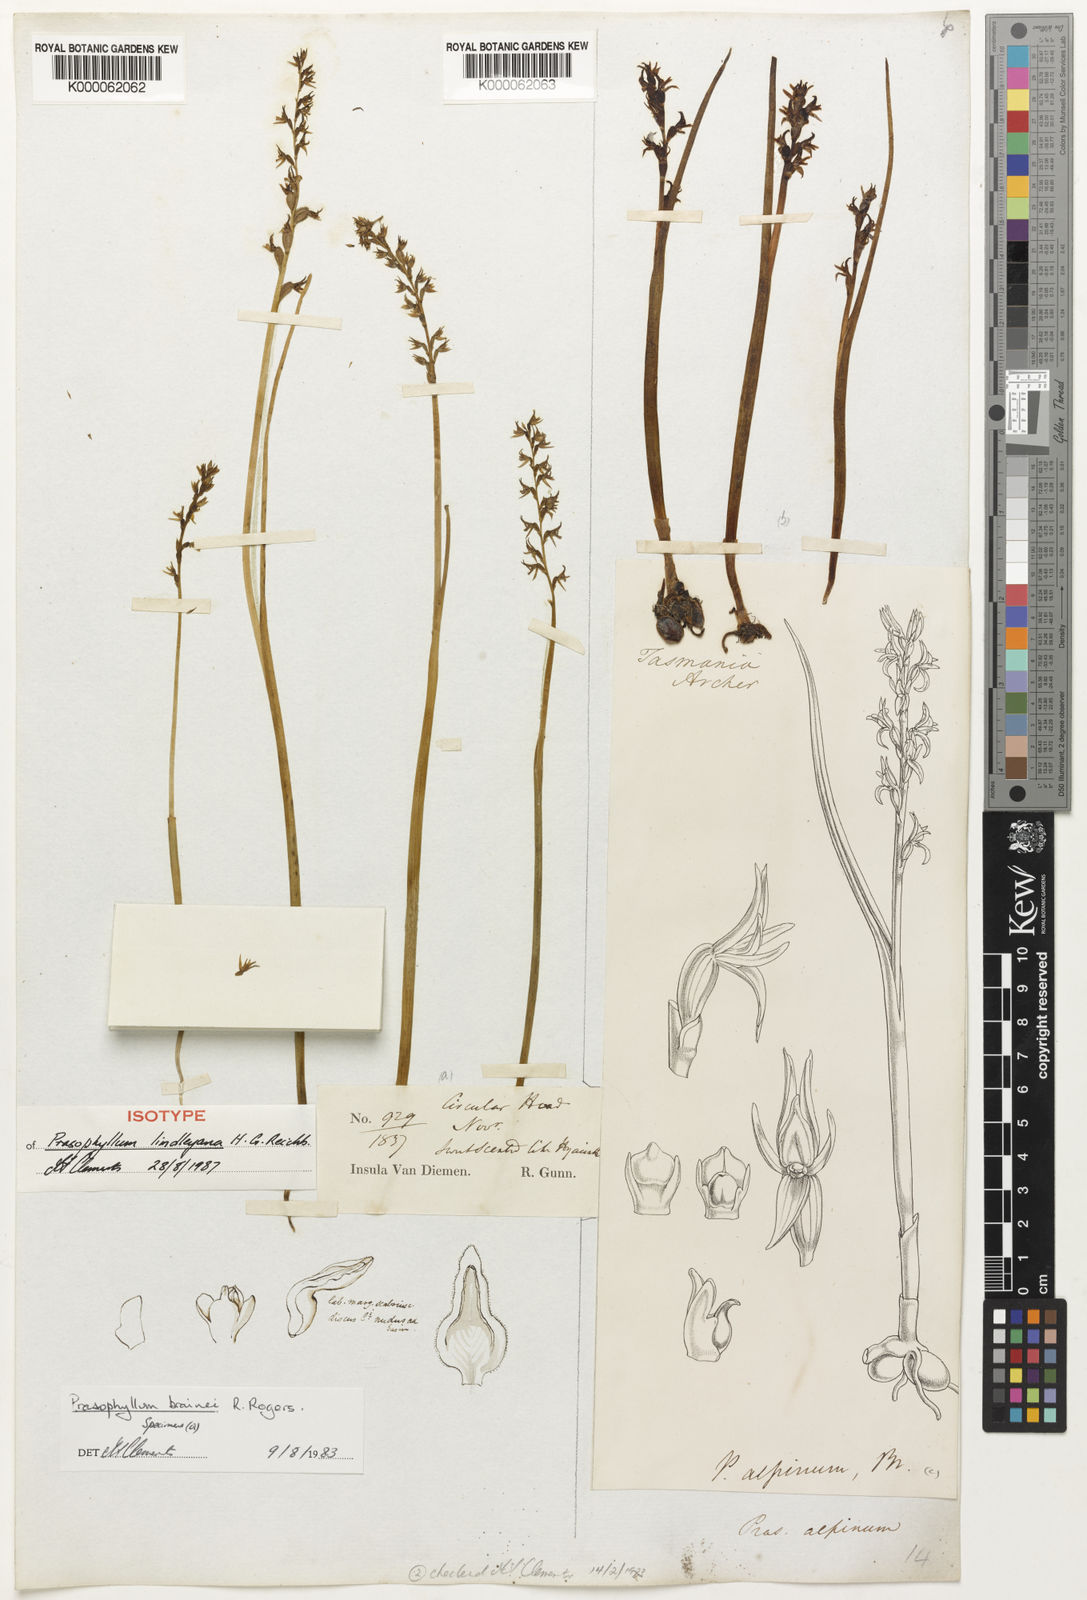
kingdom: Plantae
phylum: Tracheophyta
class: Liliopsida
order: Asparagales
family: Orchidaceae
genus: Prasophyllum
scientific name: Prasophyllum alpinum
